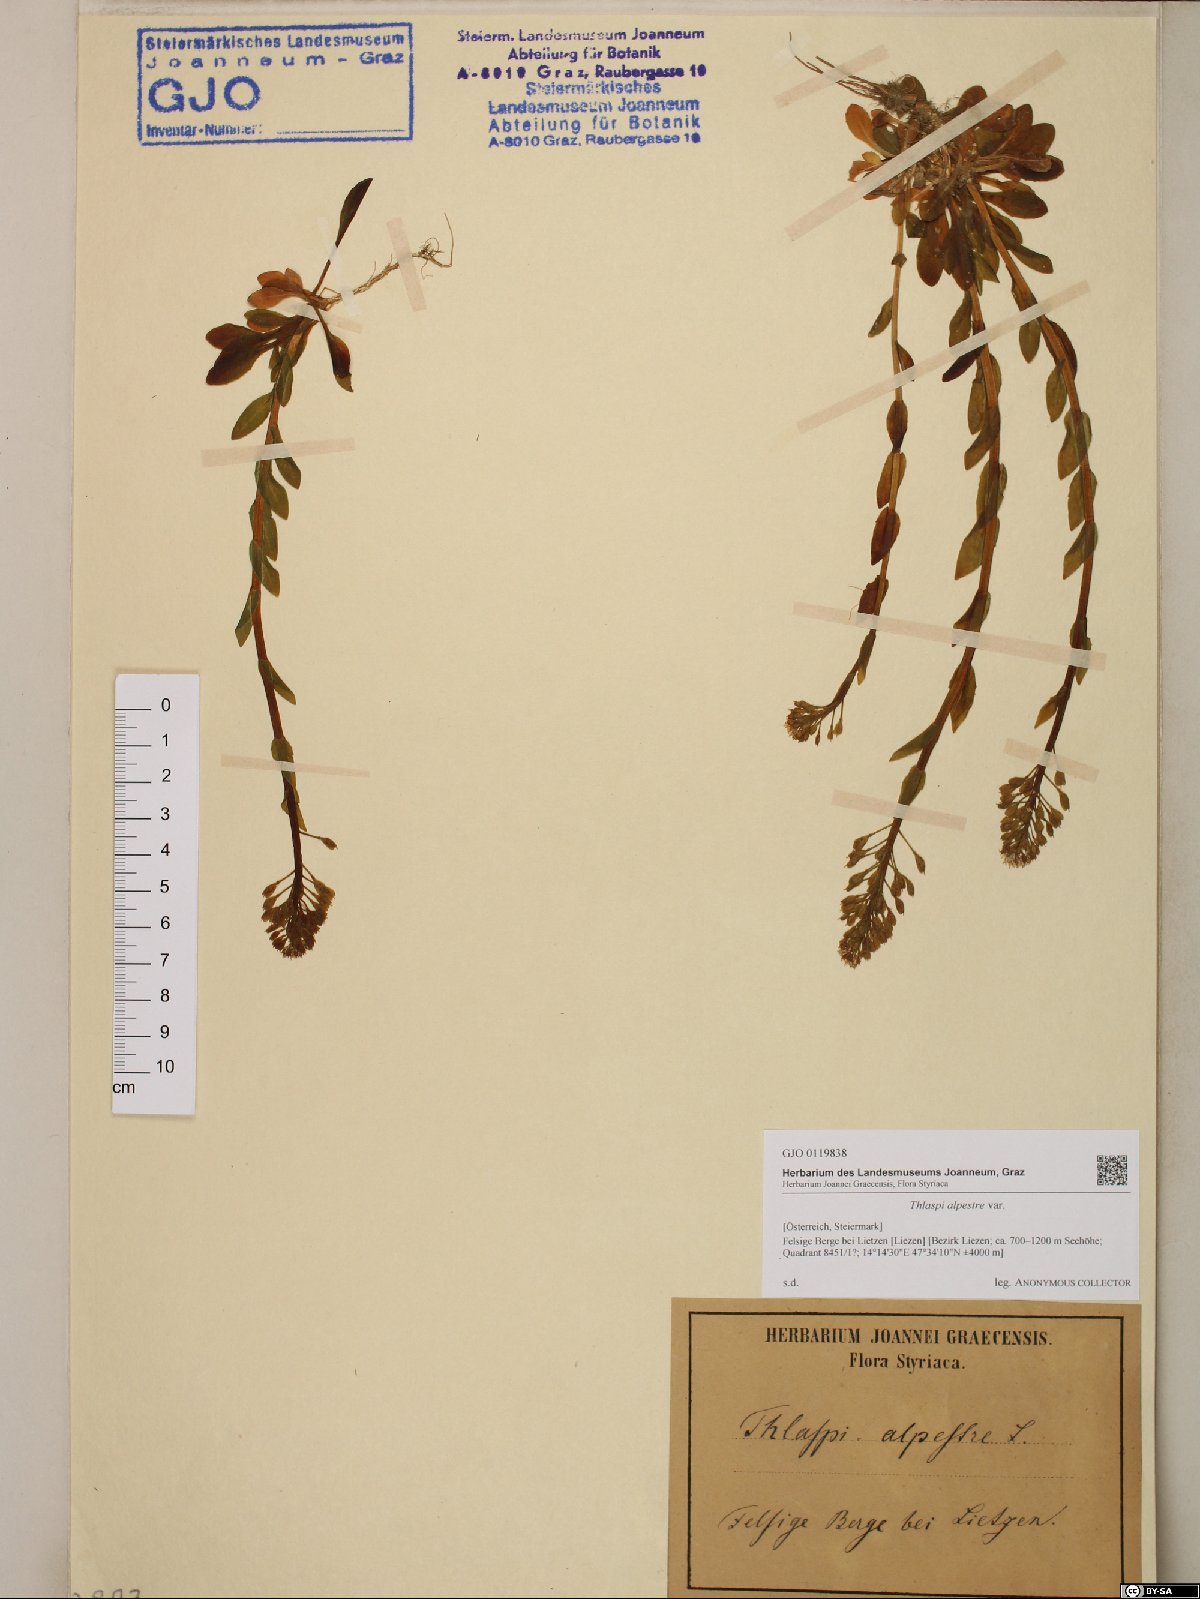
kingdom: Plantae
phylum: Tracheophyta
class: Magnoliopsida
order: Brassicales
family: Brassicaceae
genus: Noccaea
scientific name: Noccaea caerulescens
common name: Alpine pennycress
